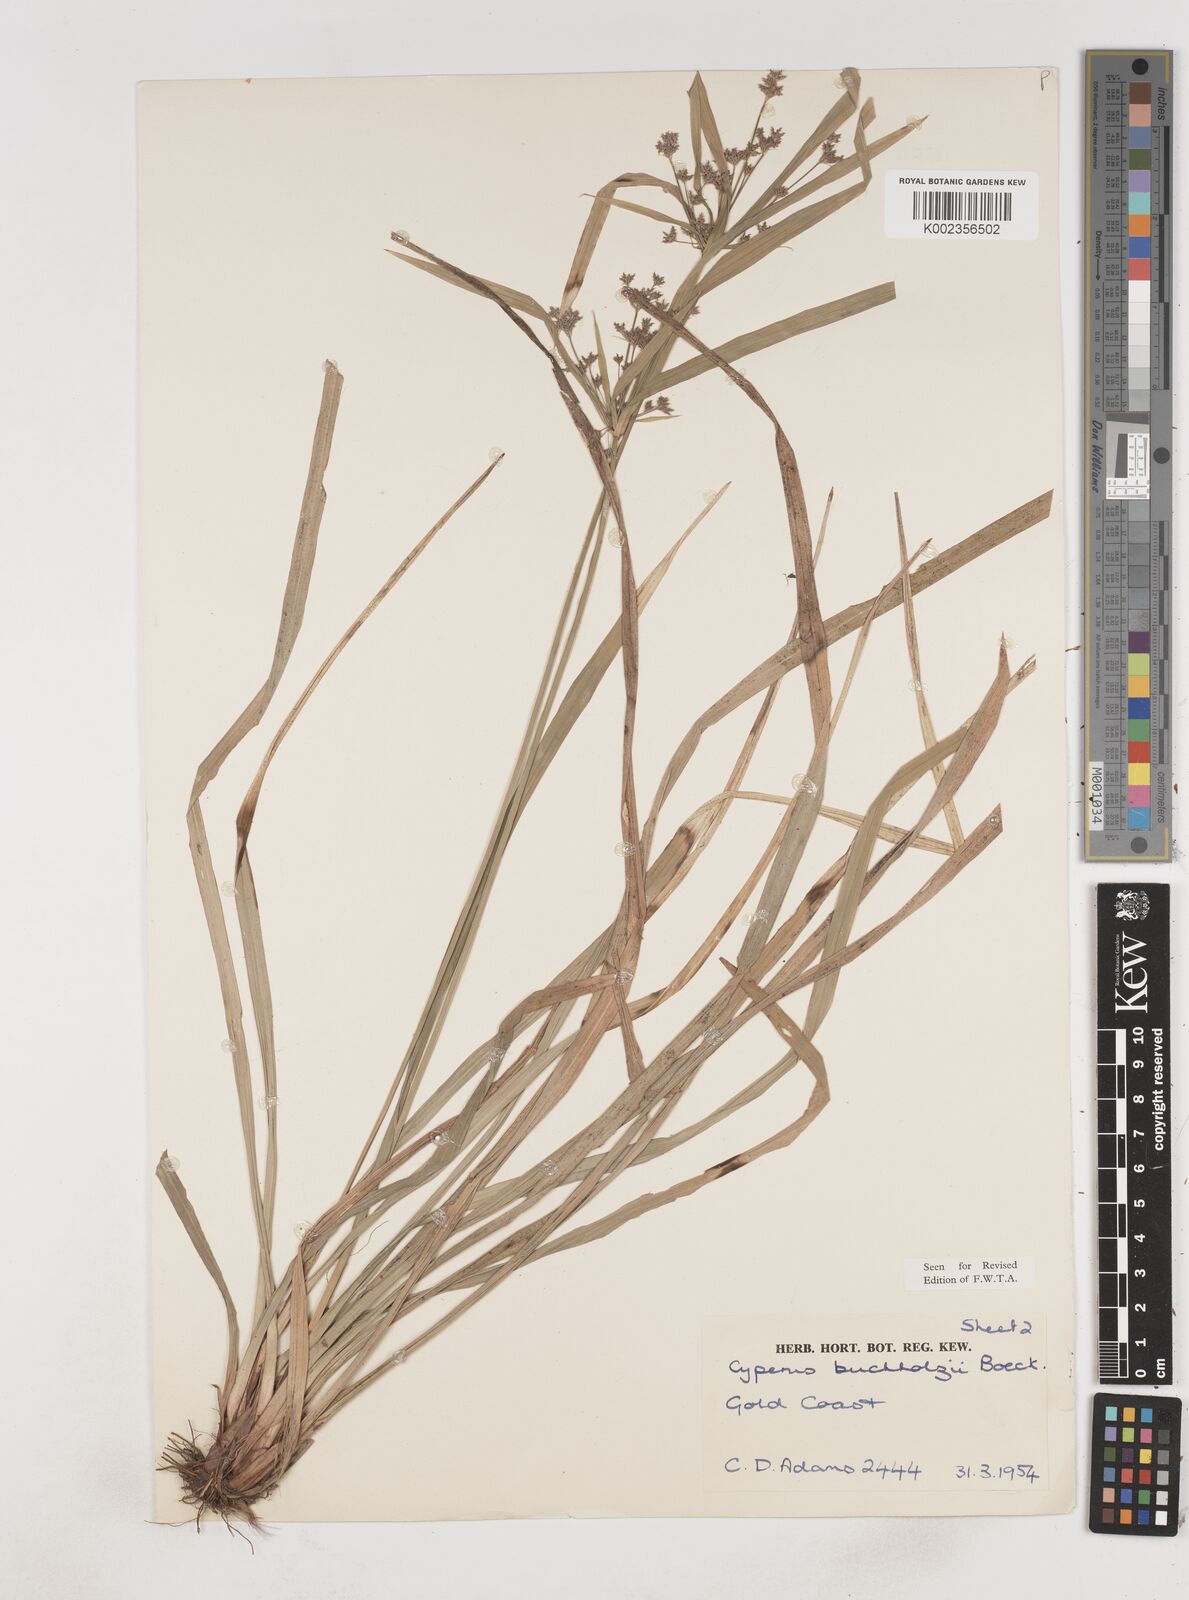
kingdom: Plantae
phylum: Tracheophyta
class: Liliopsida
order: Poales
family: Cyperaceae
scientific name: Cyperaceae
